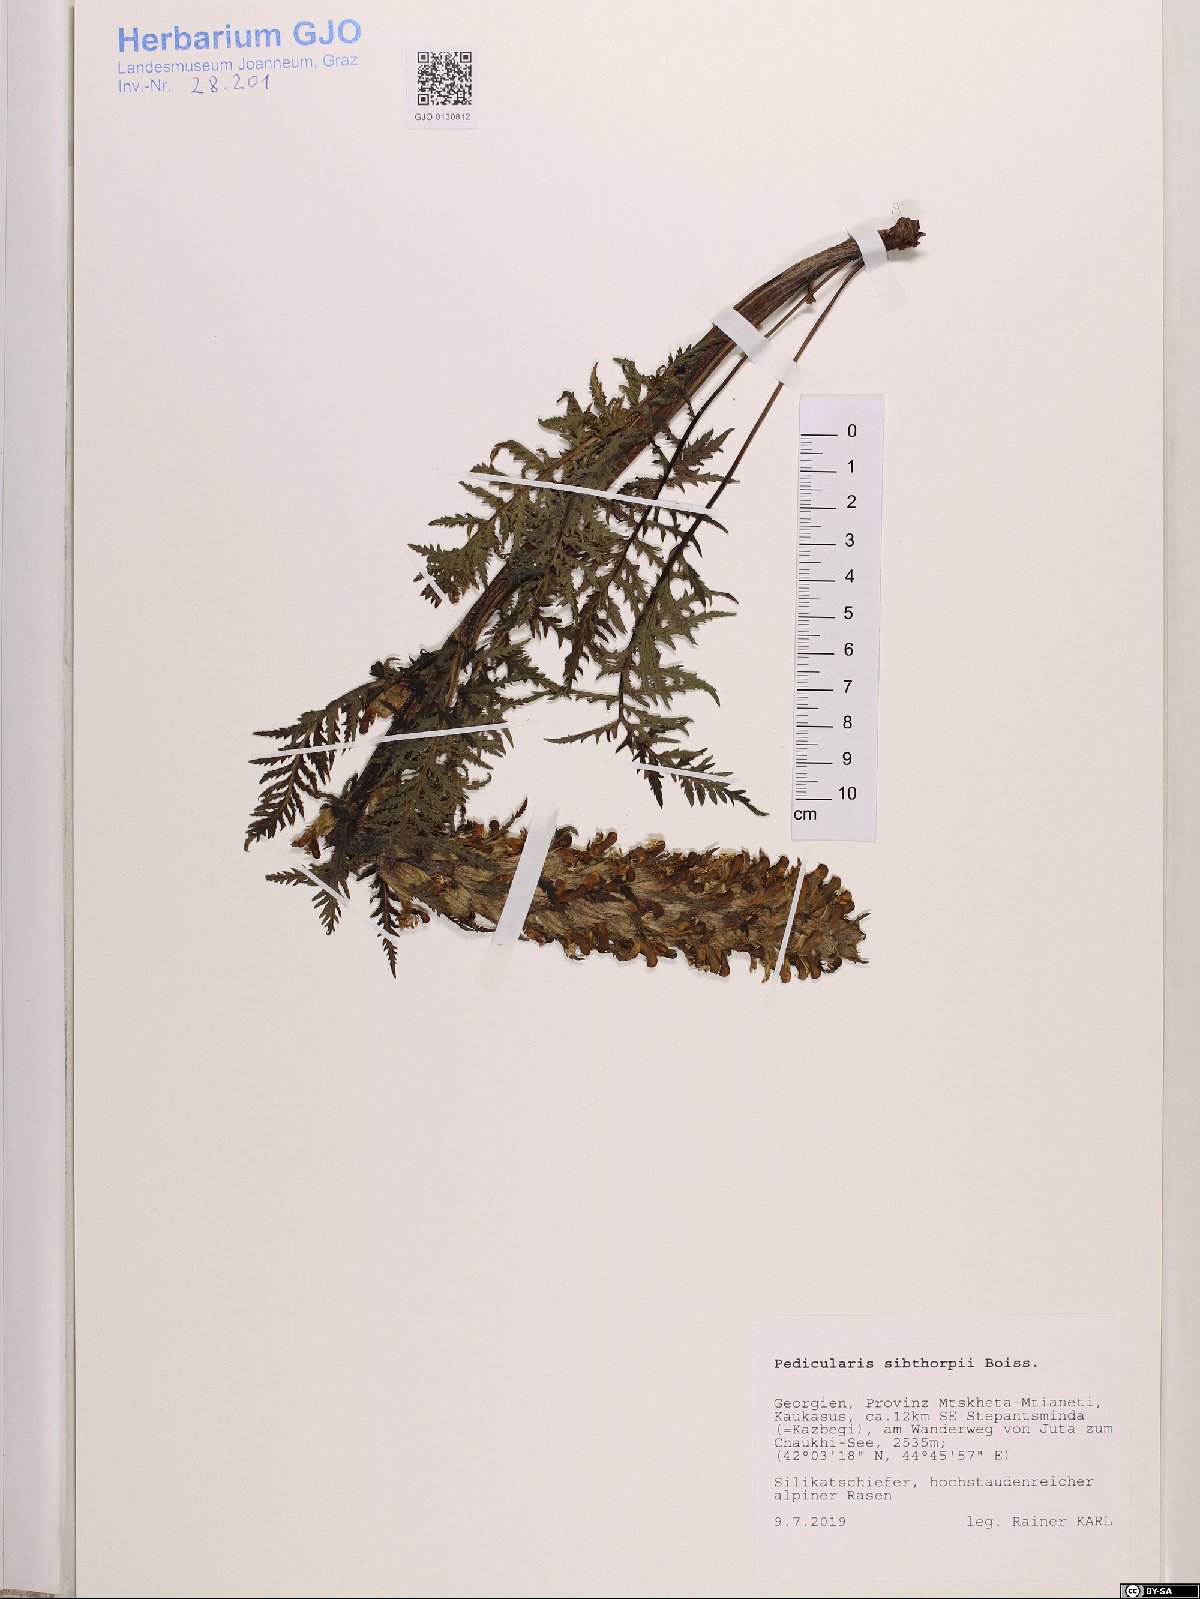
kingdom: Plantae
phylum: Tracheophyta
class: Magnoliopsida
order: Lamiales
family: Orobanchaceae
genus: Pedicularis
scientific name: Pedicularis sibthorpii
